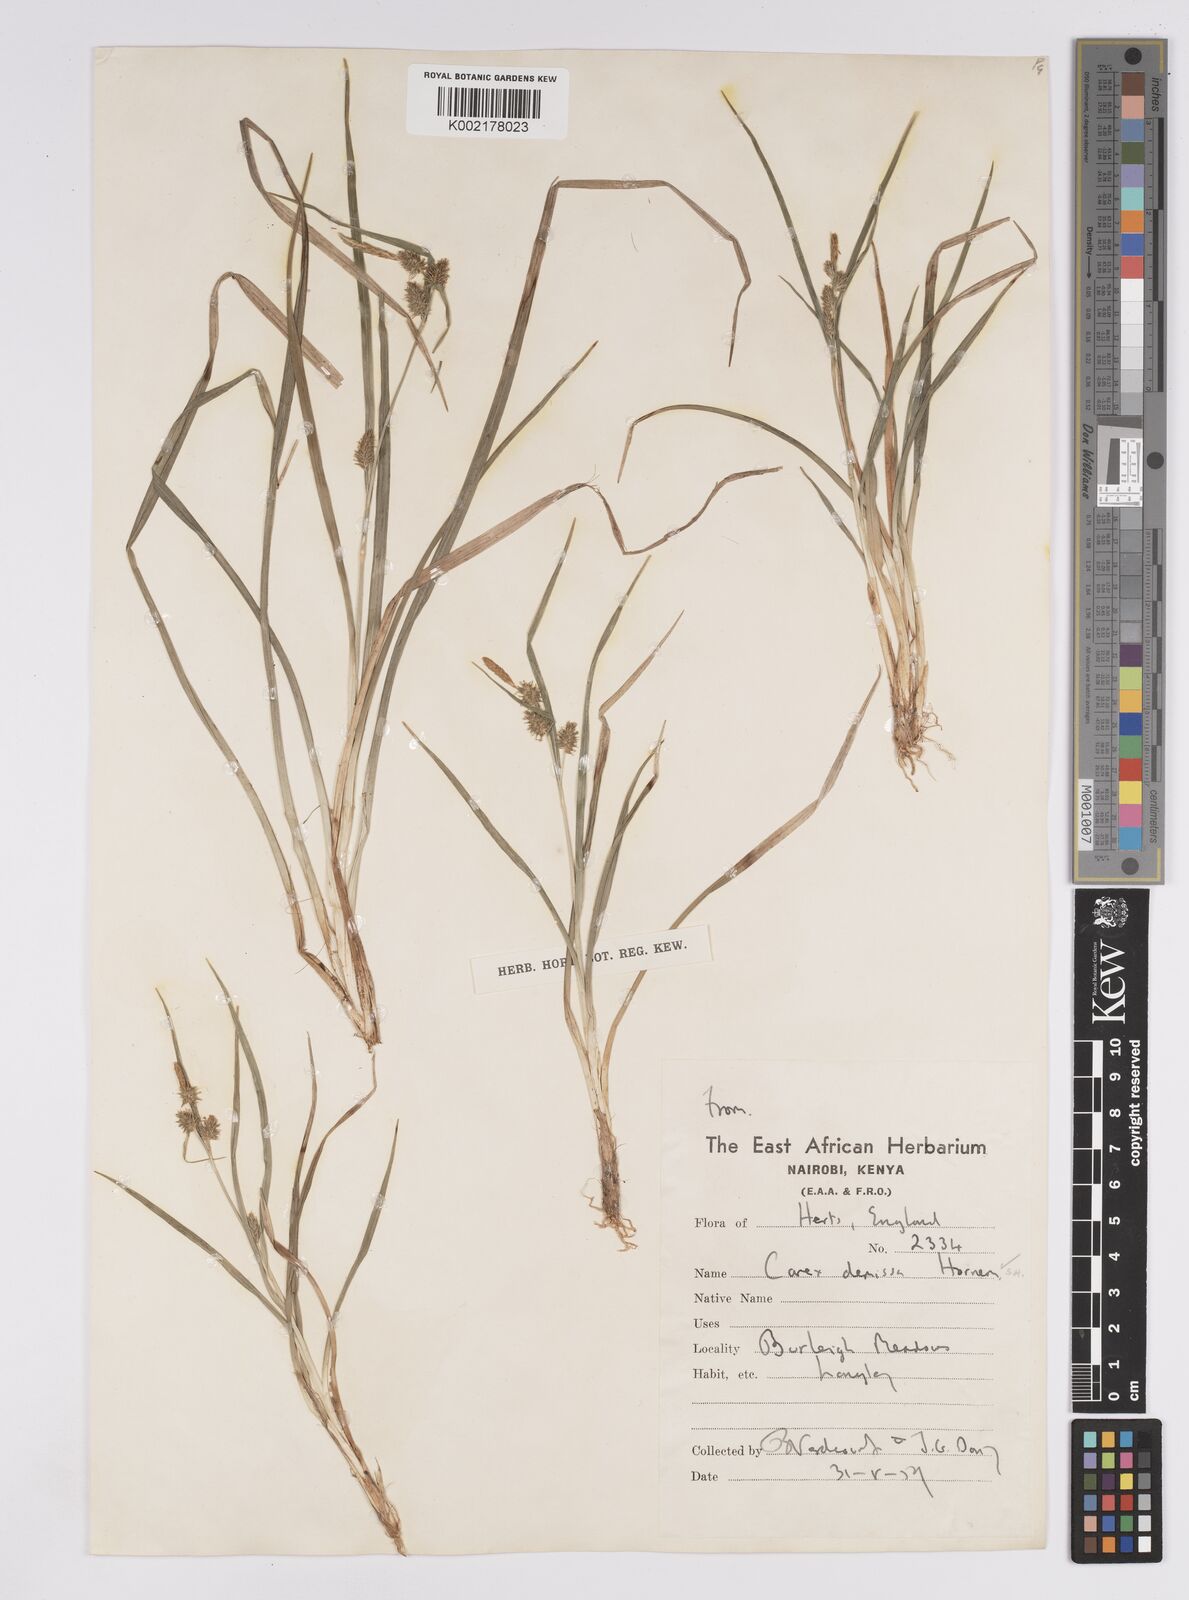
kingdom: Plantae
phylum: Tracheophyta
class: Liliopsida
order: Poales
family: Cyperaceae
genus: Carex
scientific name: Carex demissa
